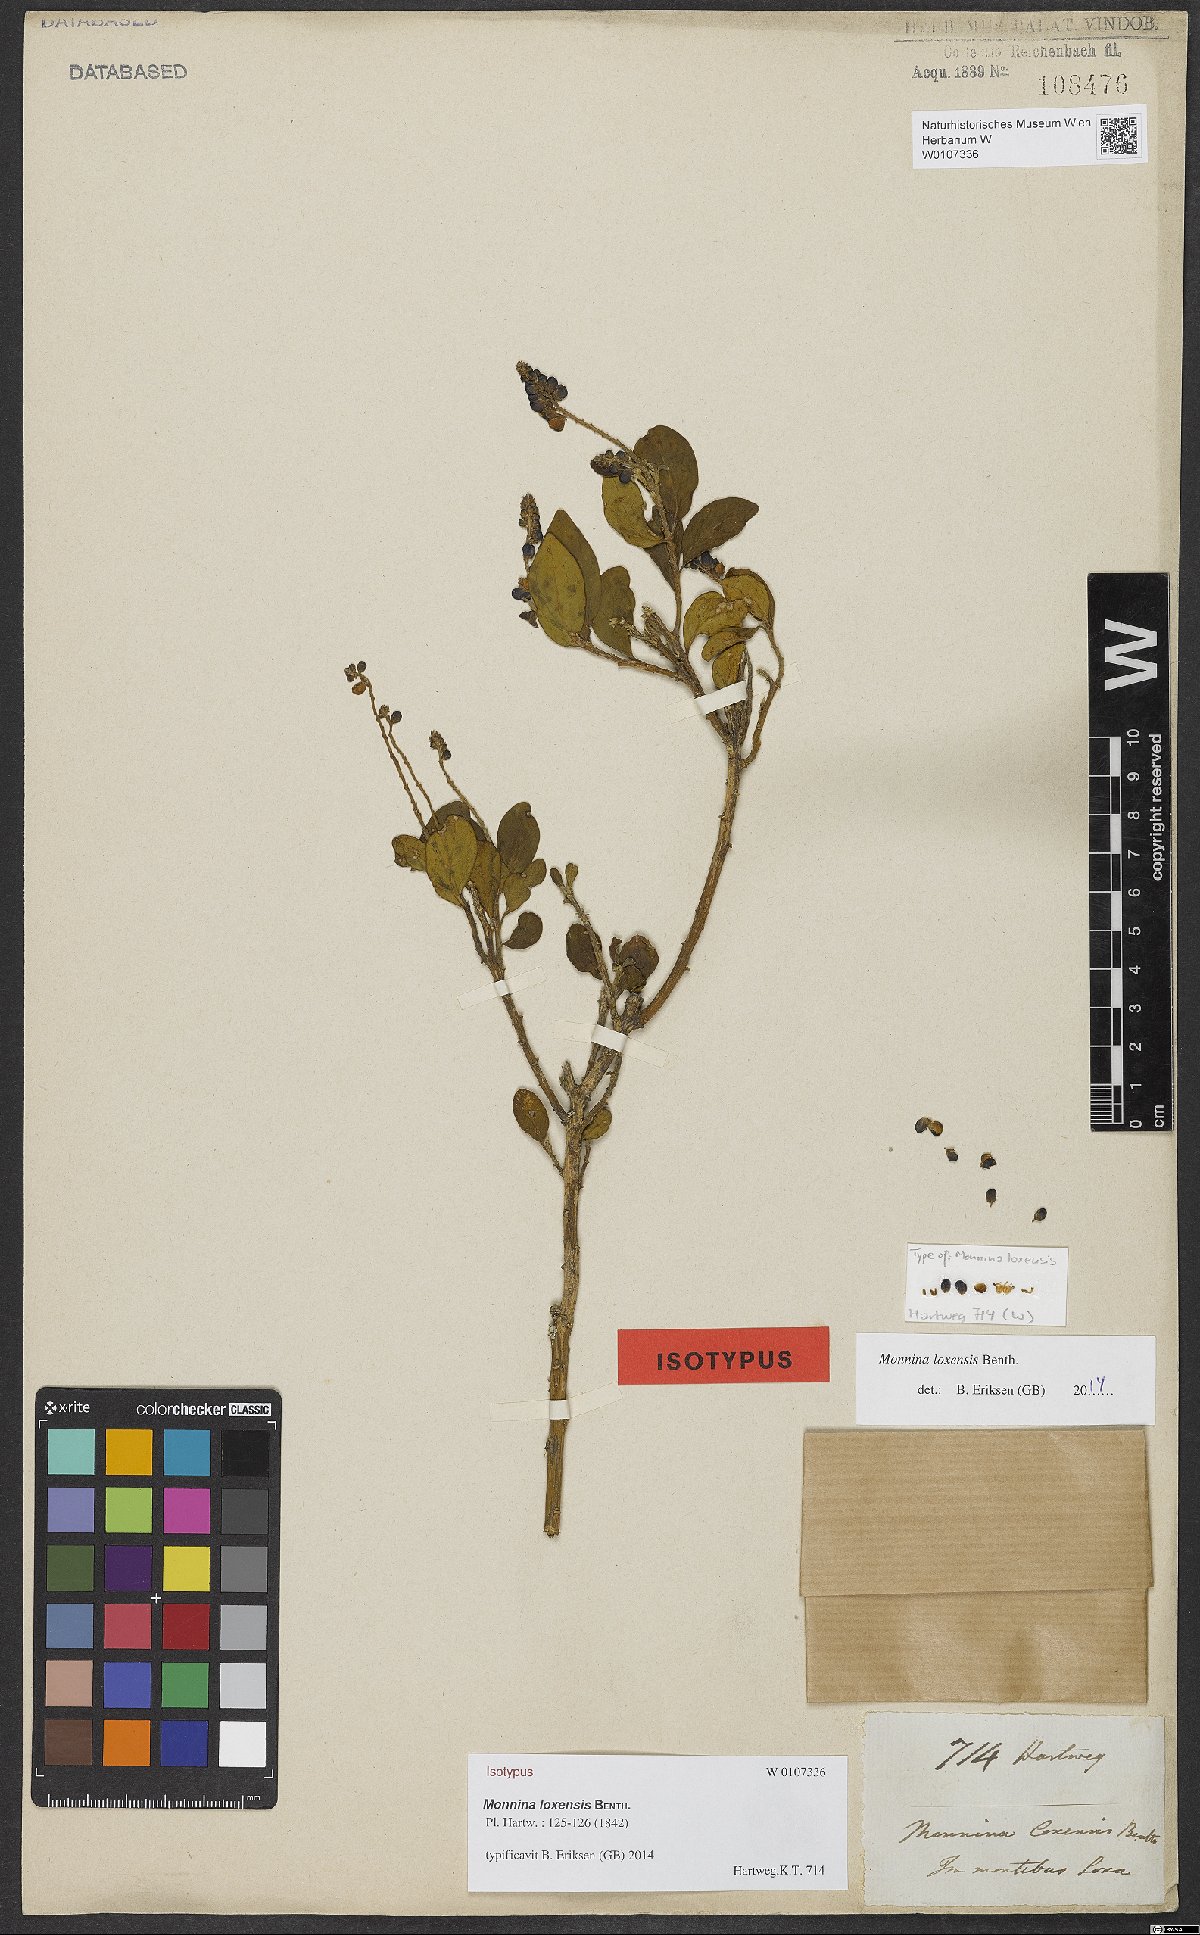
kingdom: Plantae
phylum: Tracheophyta
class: Magnoliopsida
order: Fabales
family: Polygalaceae
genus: Monnina
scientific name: Monnina loxensis
